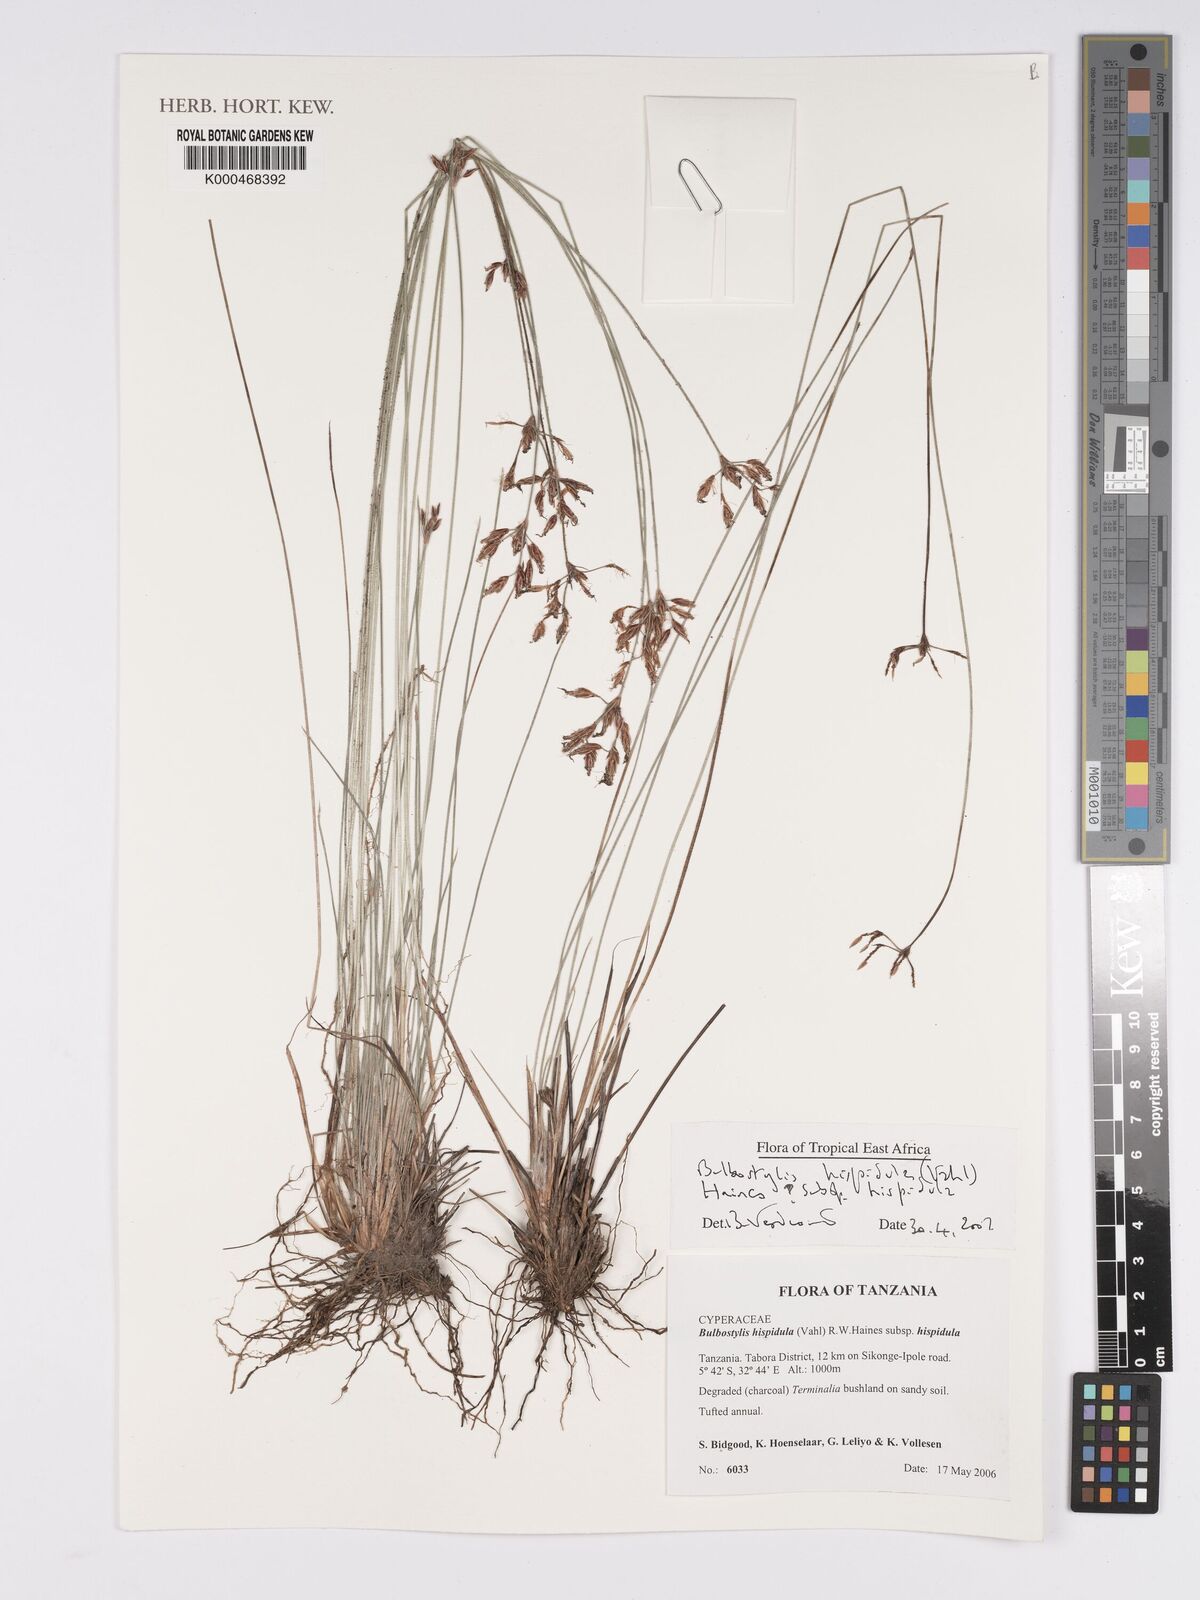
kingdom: Plantae
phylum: Tracheophyta
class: Liliopsida
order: Poales
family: Cyperaceae
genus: Bulbostylis
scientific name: Bulbostylis hispidula
